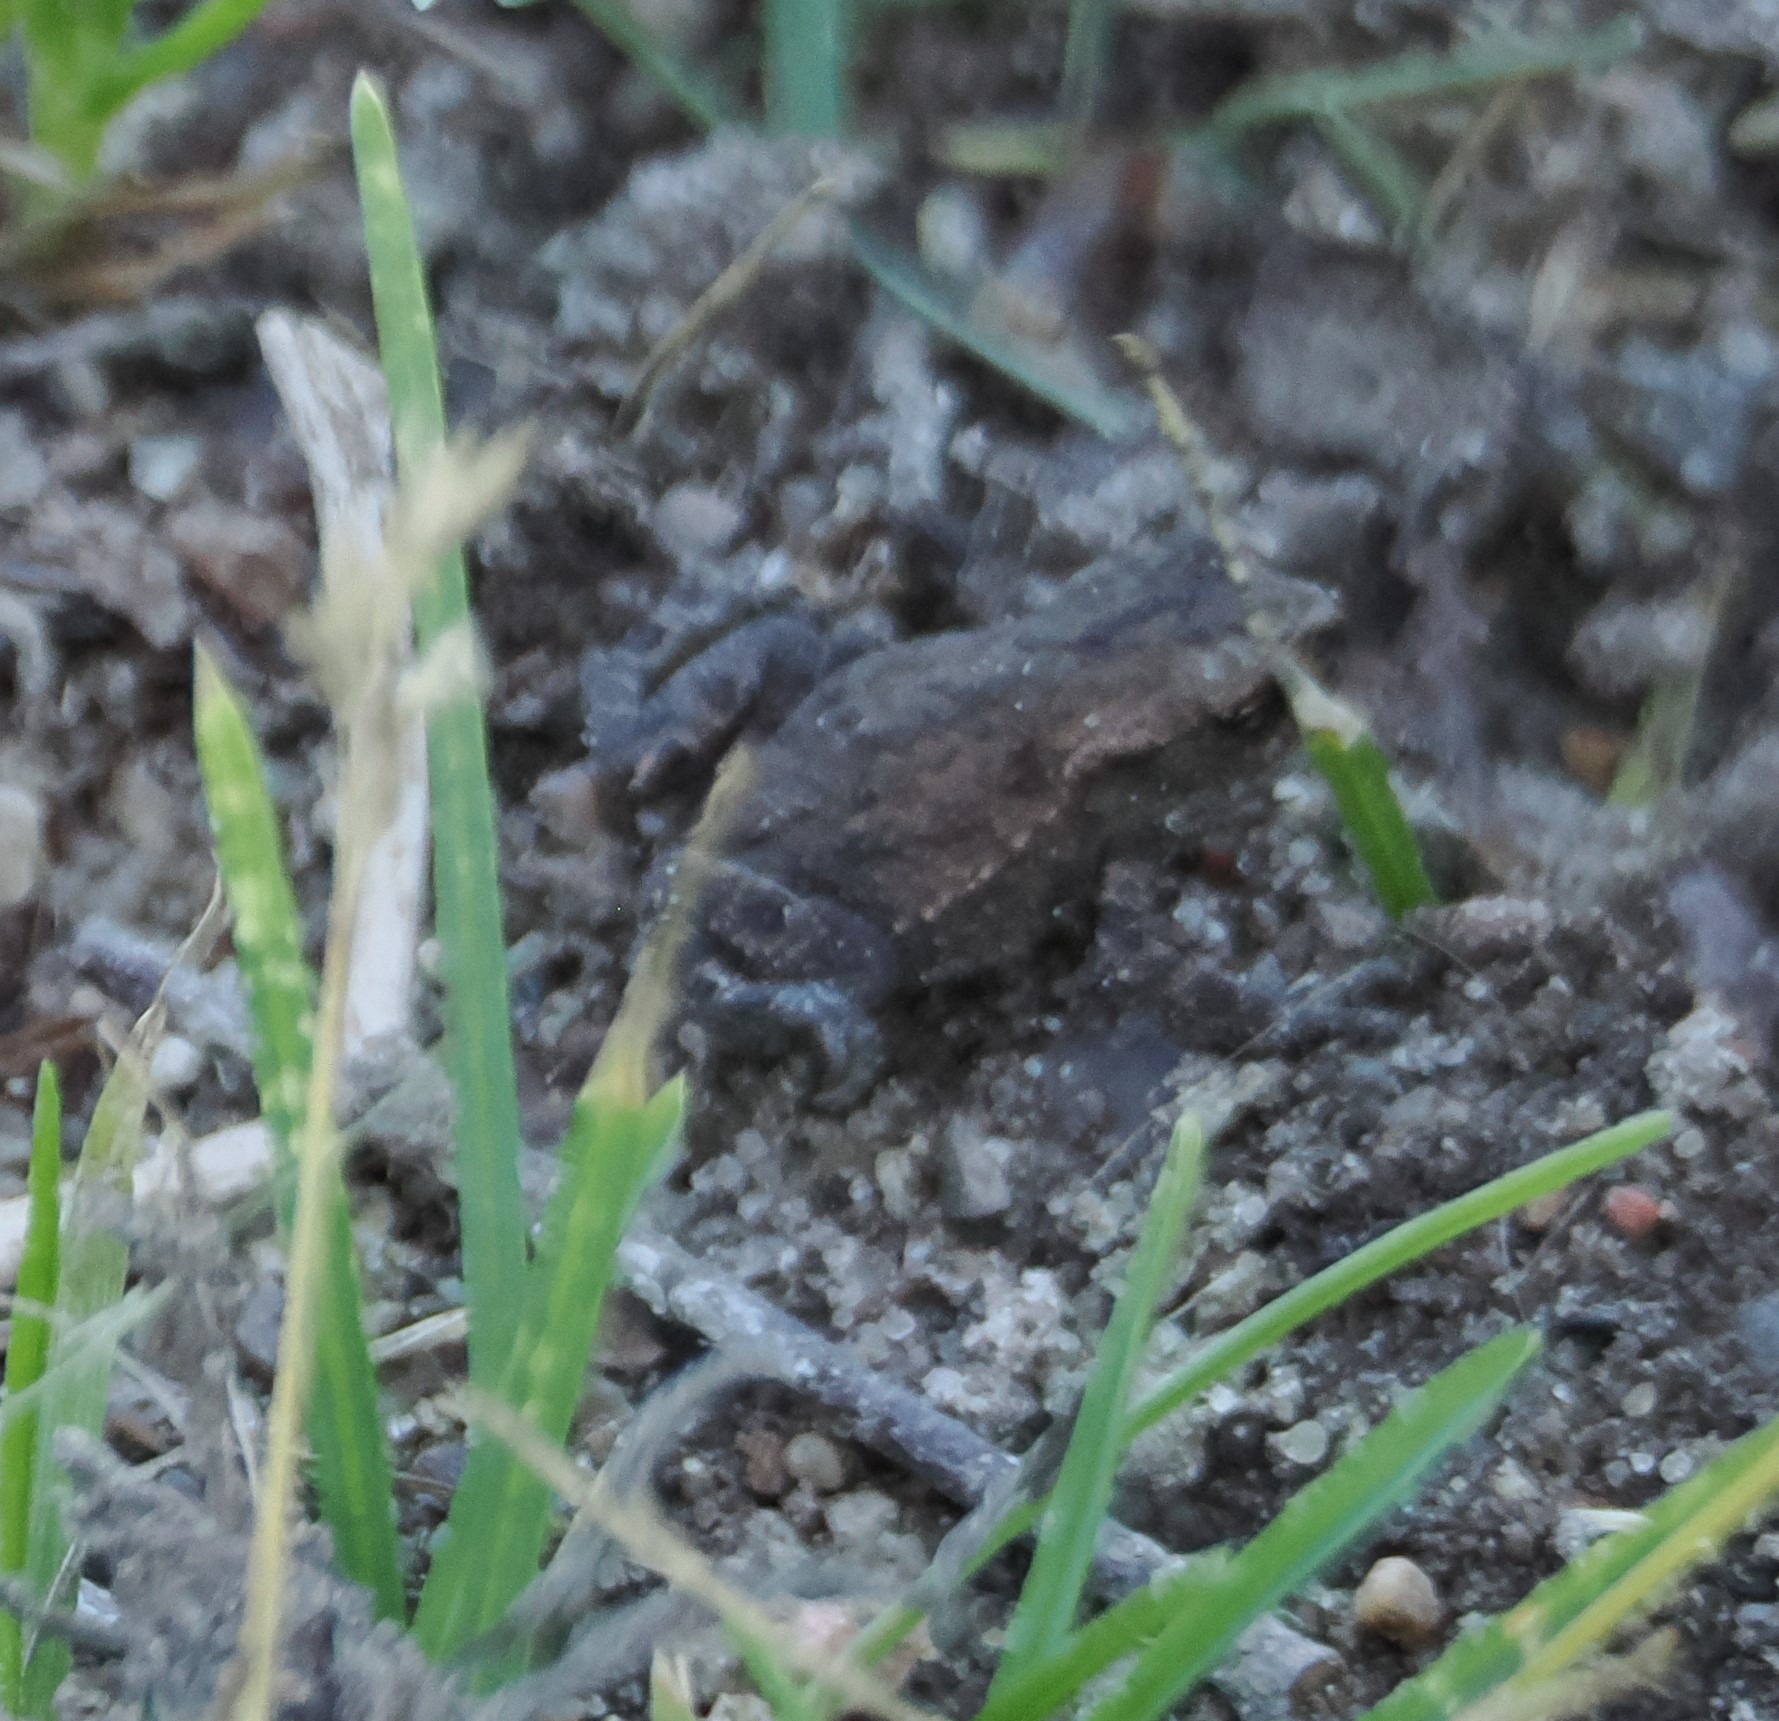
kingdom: Animalia
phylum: Chordata
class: Amphibia
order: Anura
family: Bufonidae
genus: Bufo
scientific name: Bufo bufo
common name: Skrubtudse
